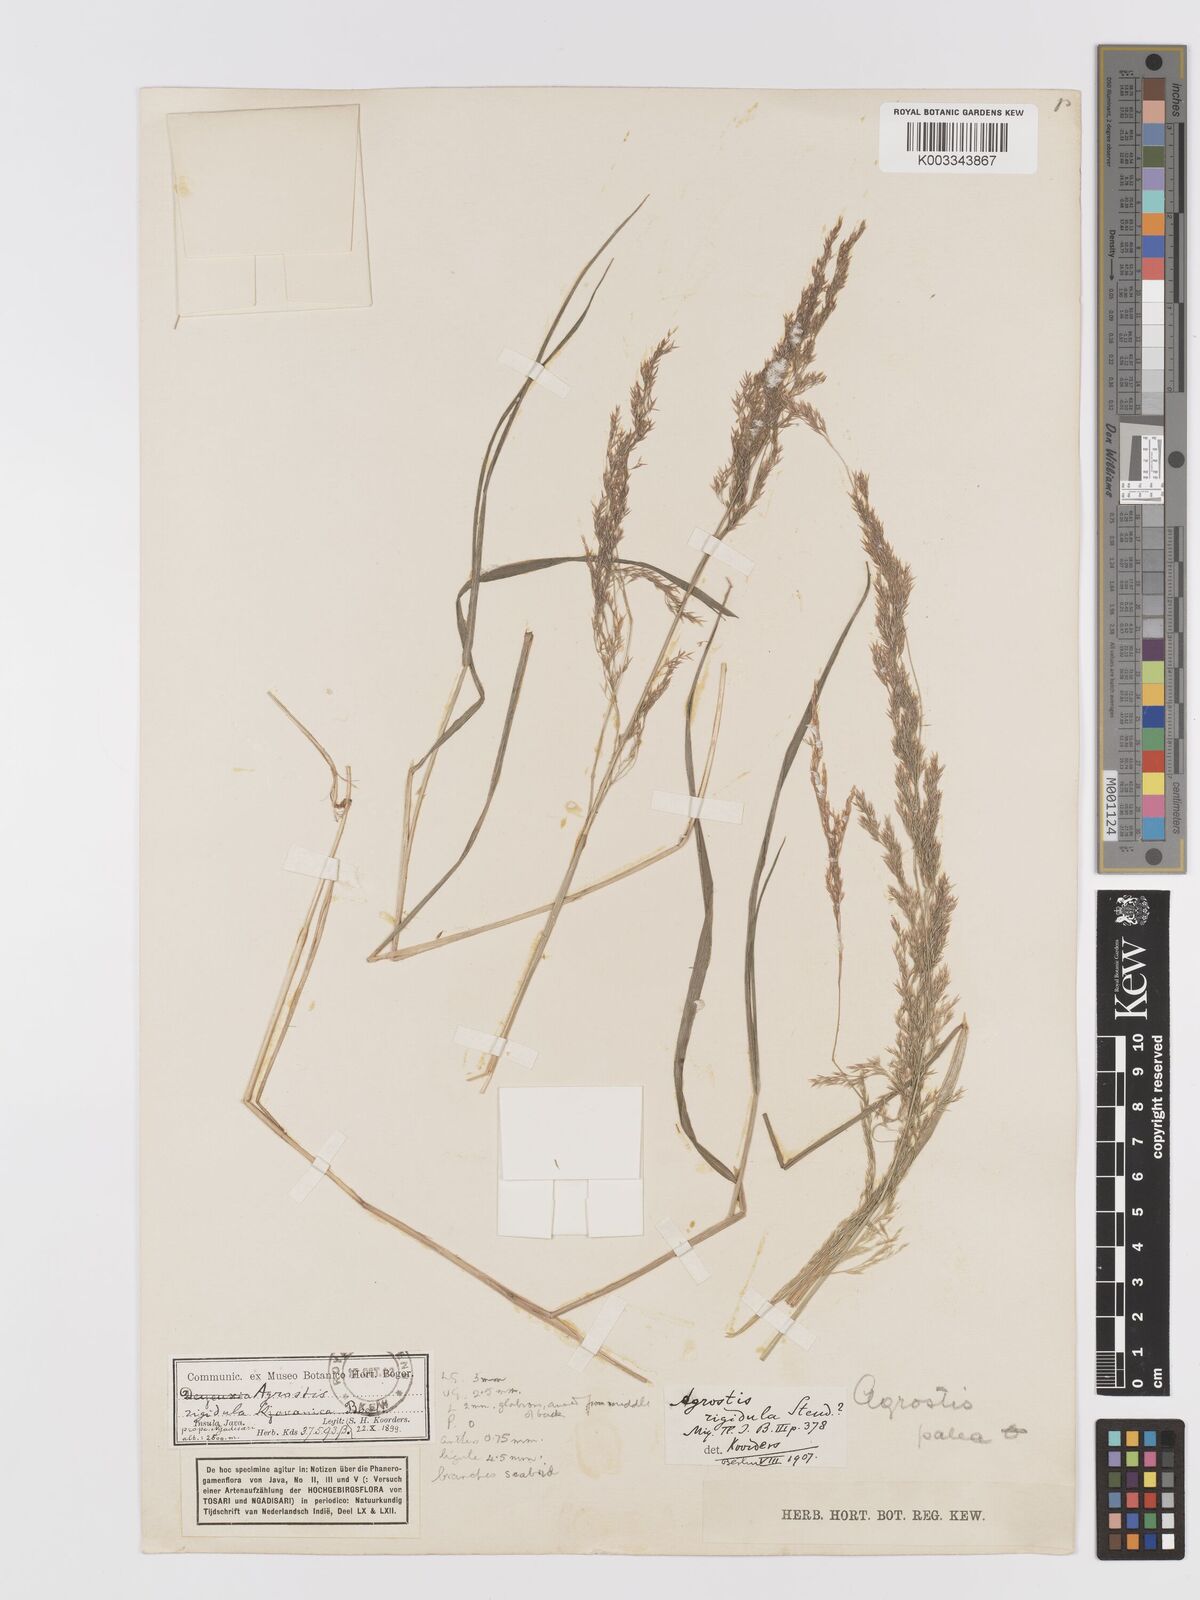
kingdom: Plantae
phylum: Tracheophyta
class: Liliopsida
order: Poales
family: Poaceae
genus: Agrostis
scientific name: Agrostis infirma
